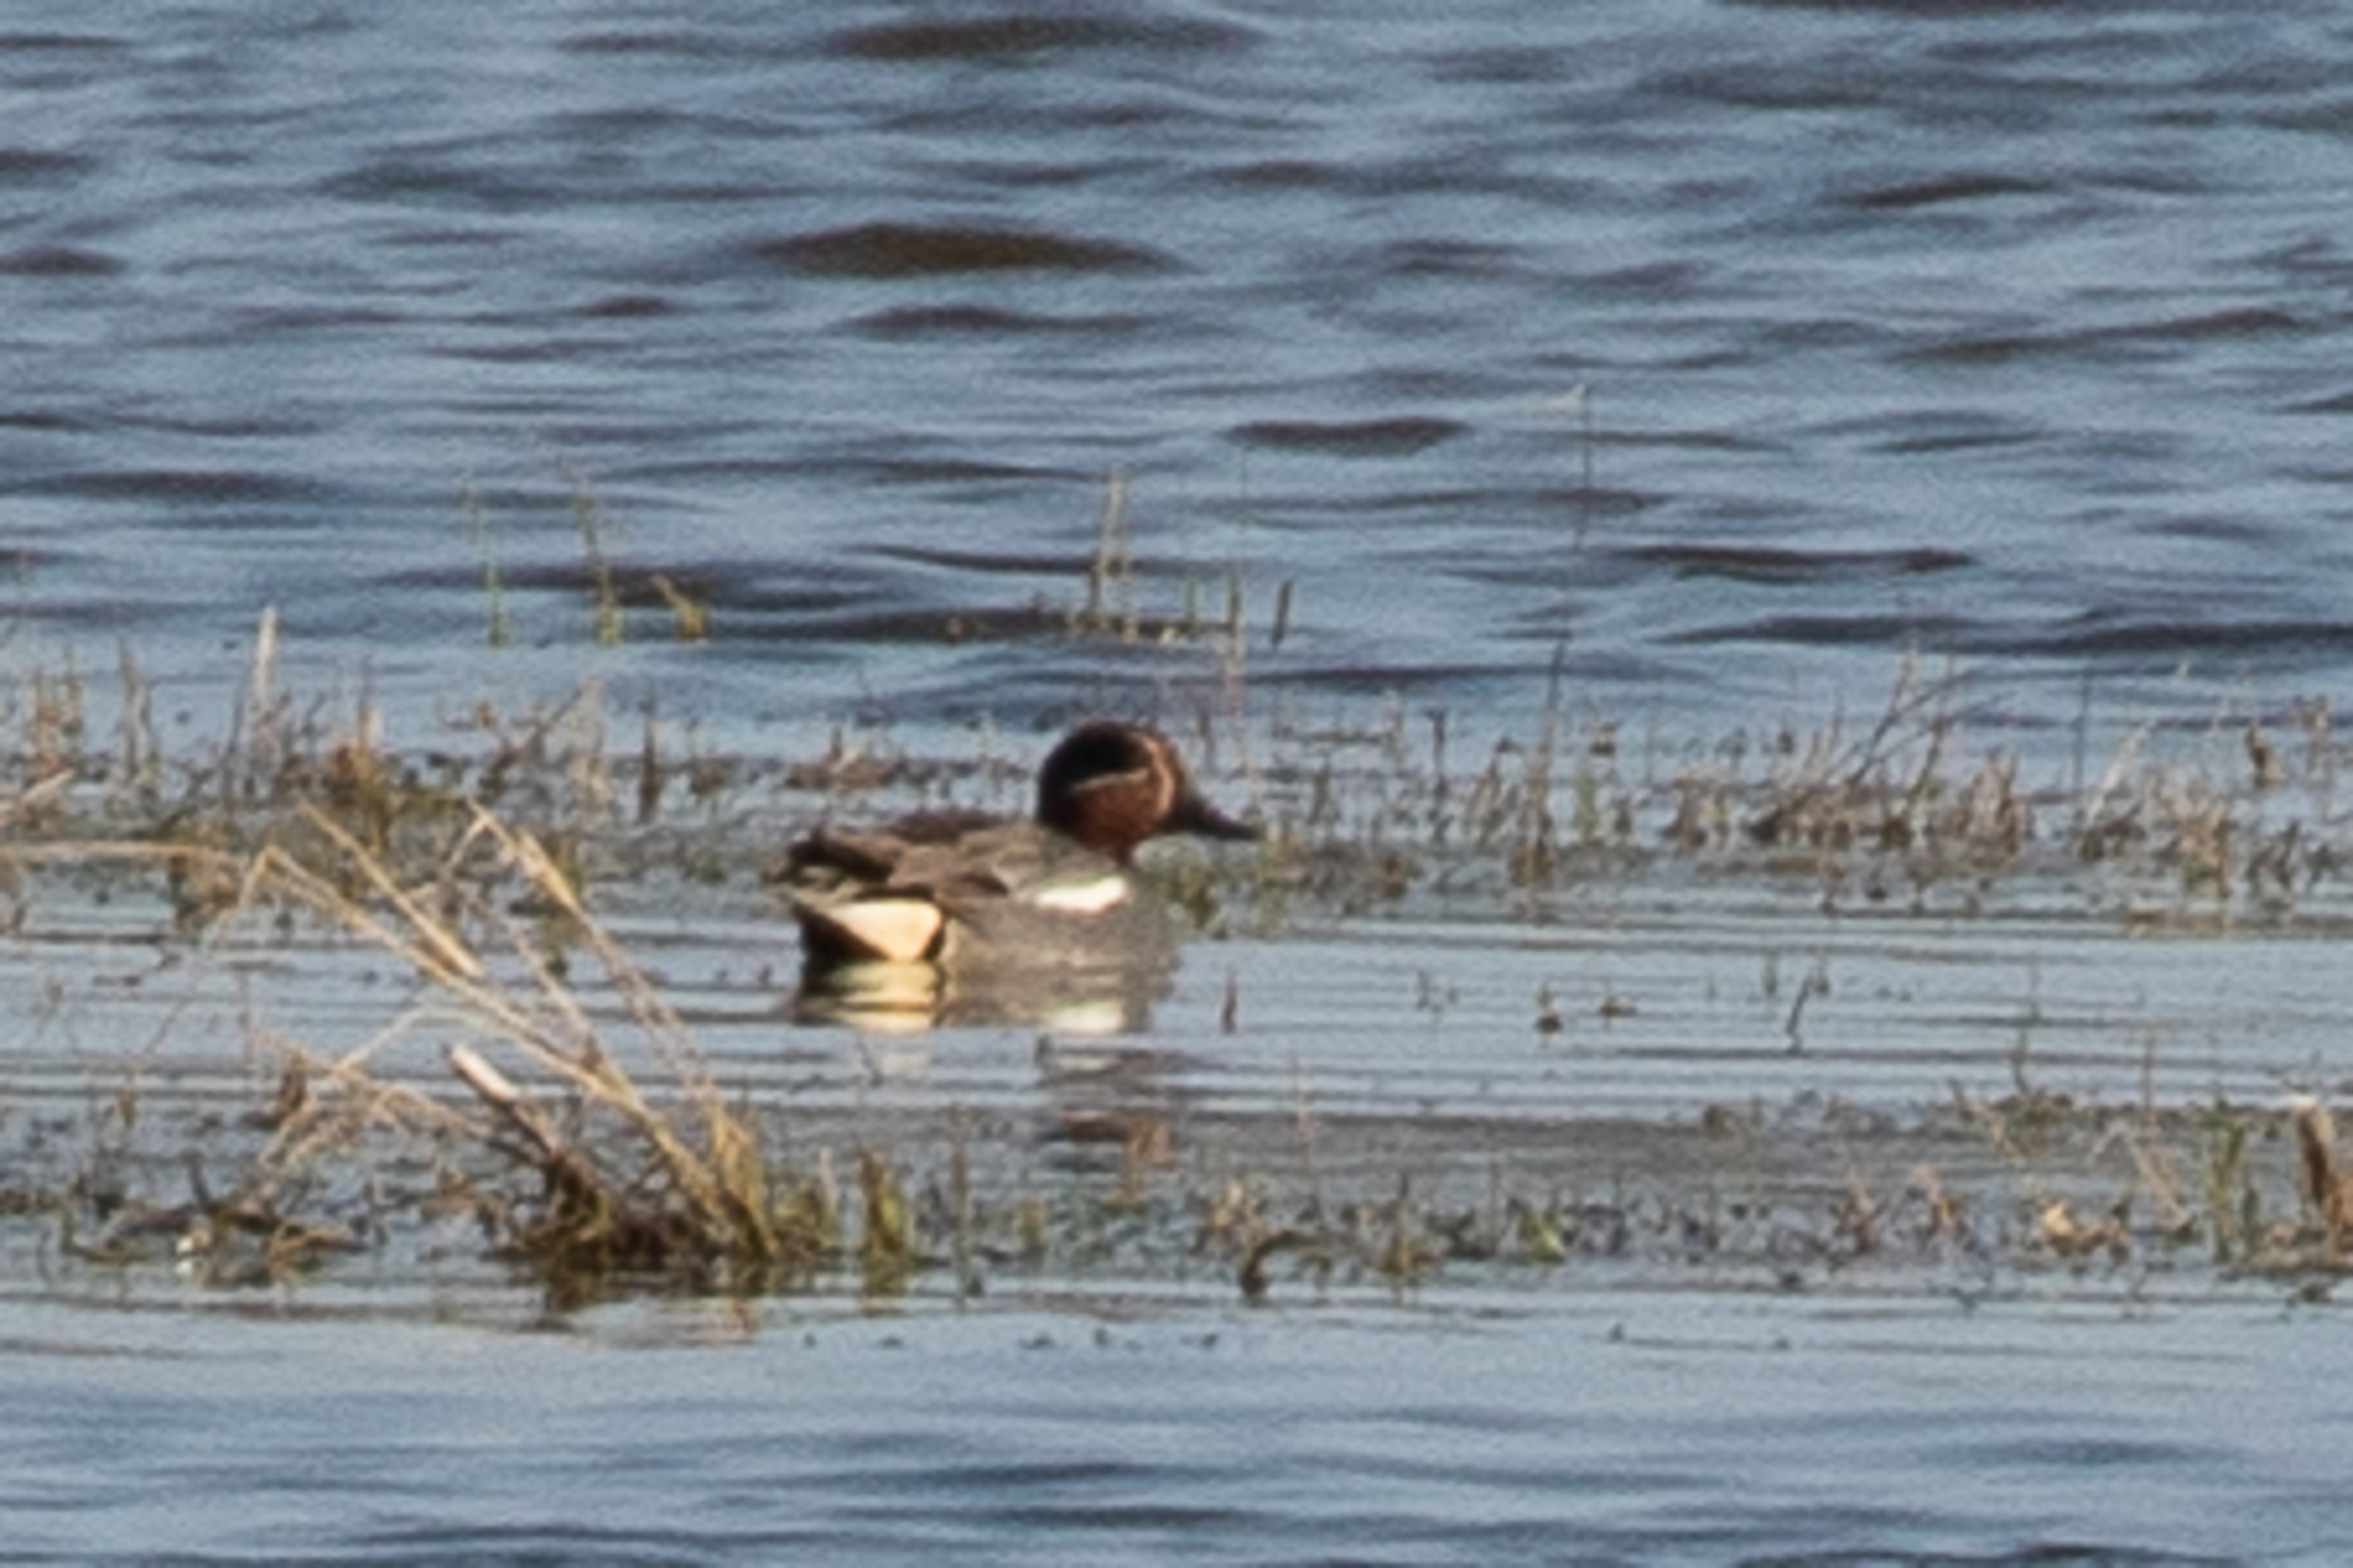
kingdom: Animalia
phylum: Chordata
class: Aves
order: Anseriformes
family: Anatidae
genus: Anas
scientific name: Anas crecca
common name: Krikand
